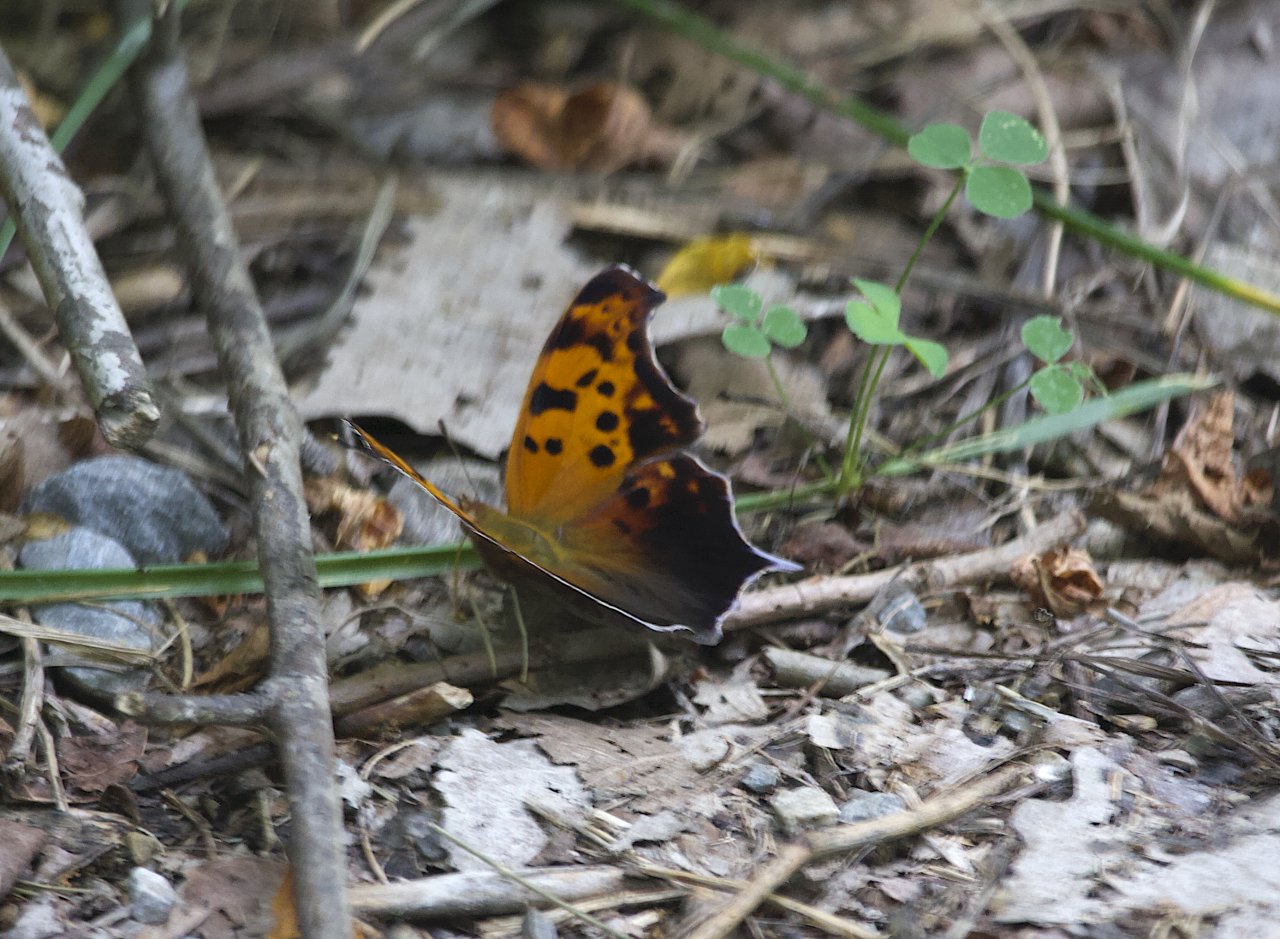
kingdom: Animalia
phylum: Arthropoda
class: Insecta
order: Lepidoptera
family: Nymphalidae
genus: Polygonia
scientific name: Polygonia interrogationis
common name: Question Mark
